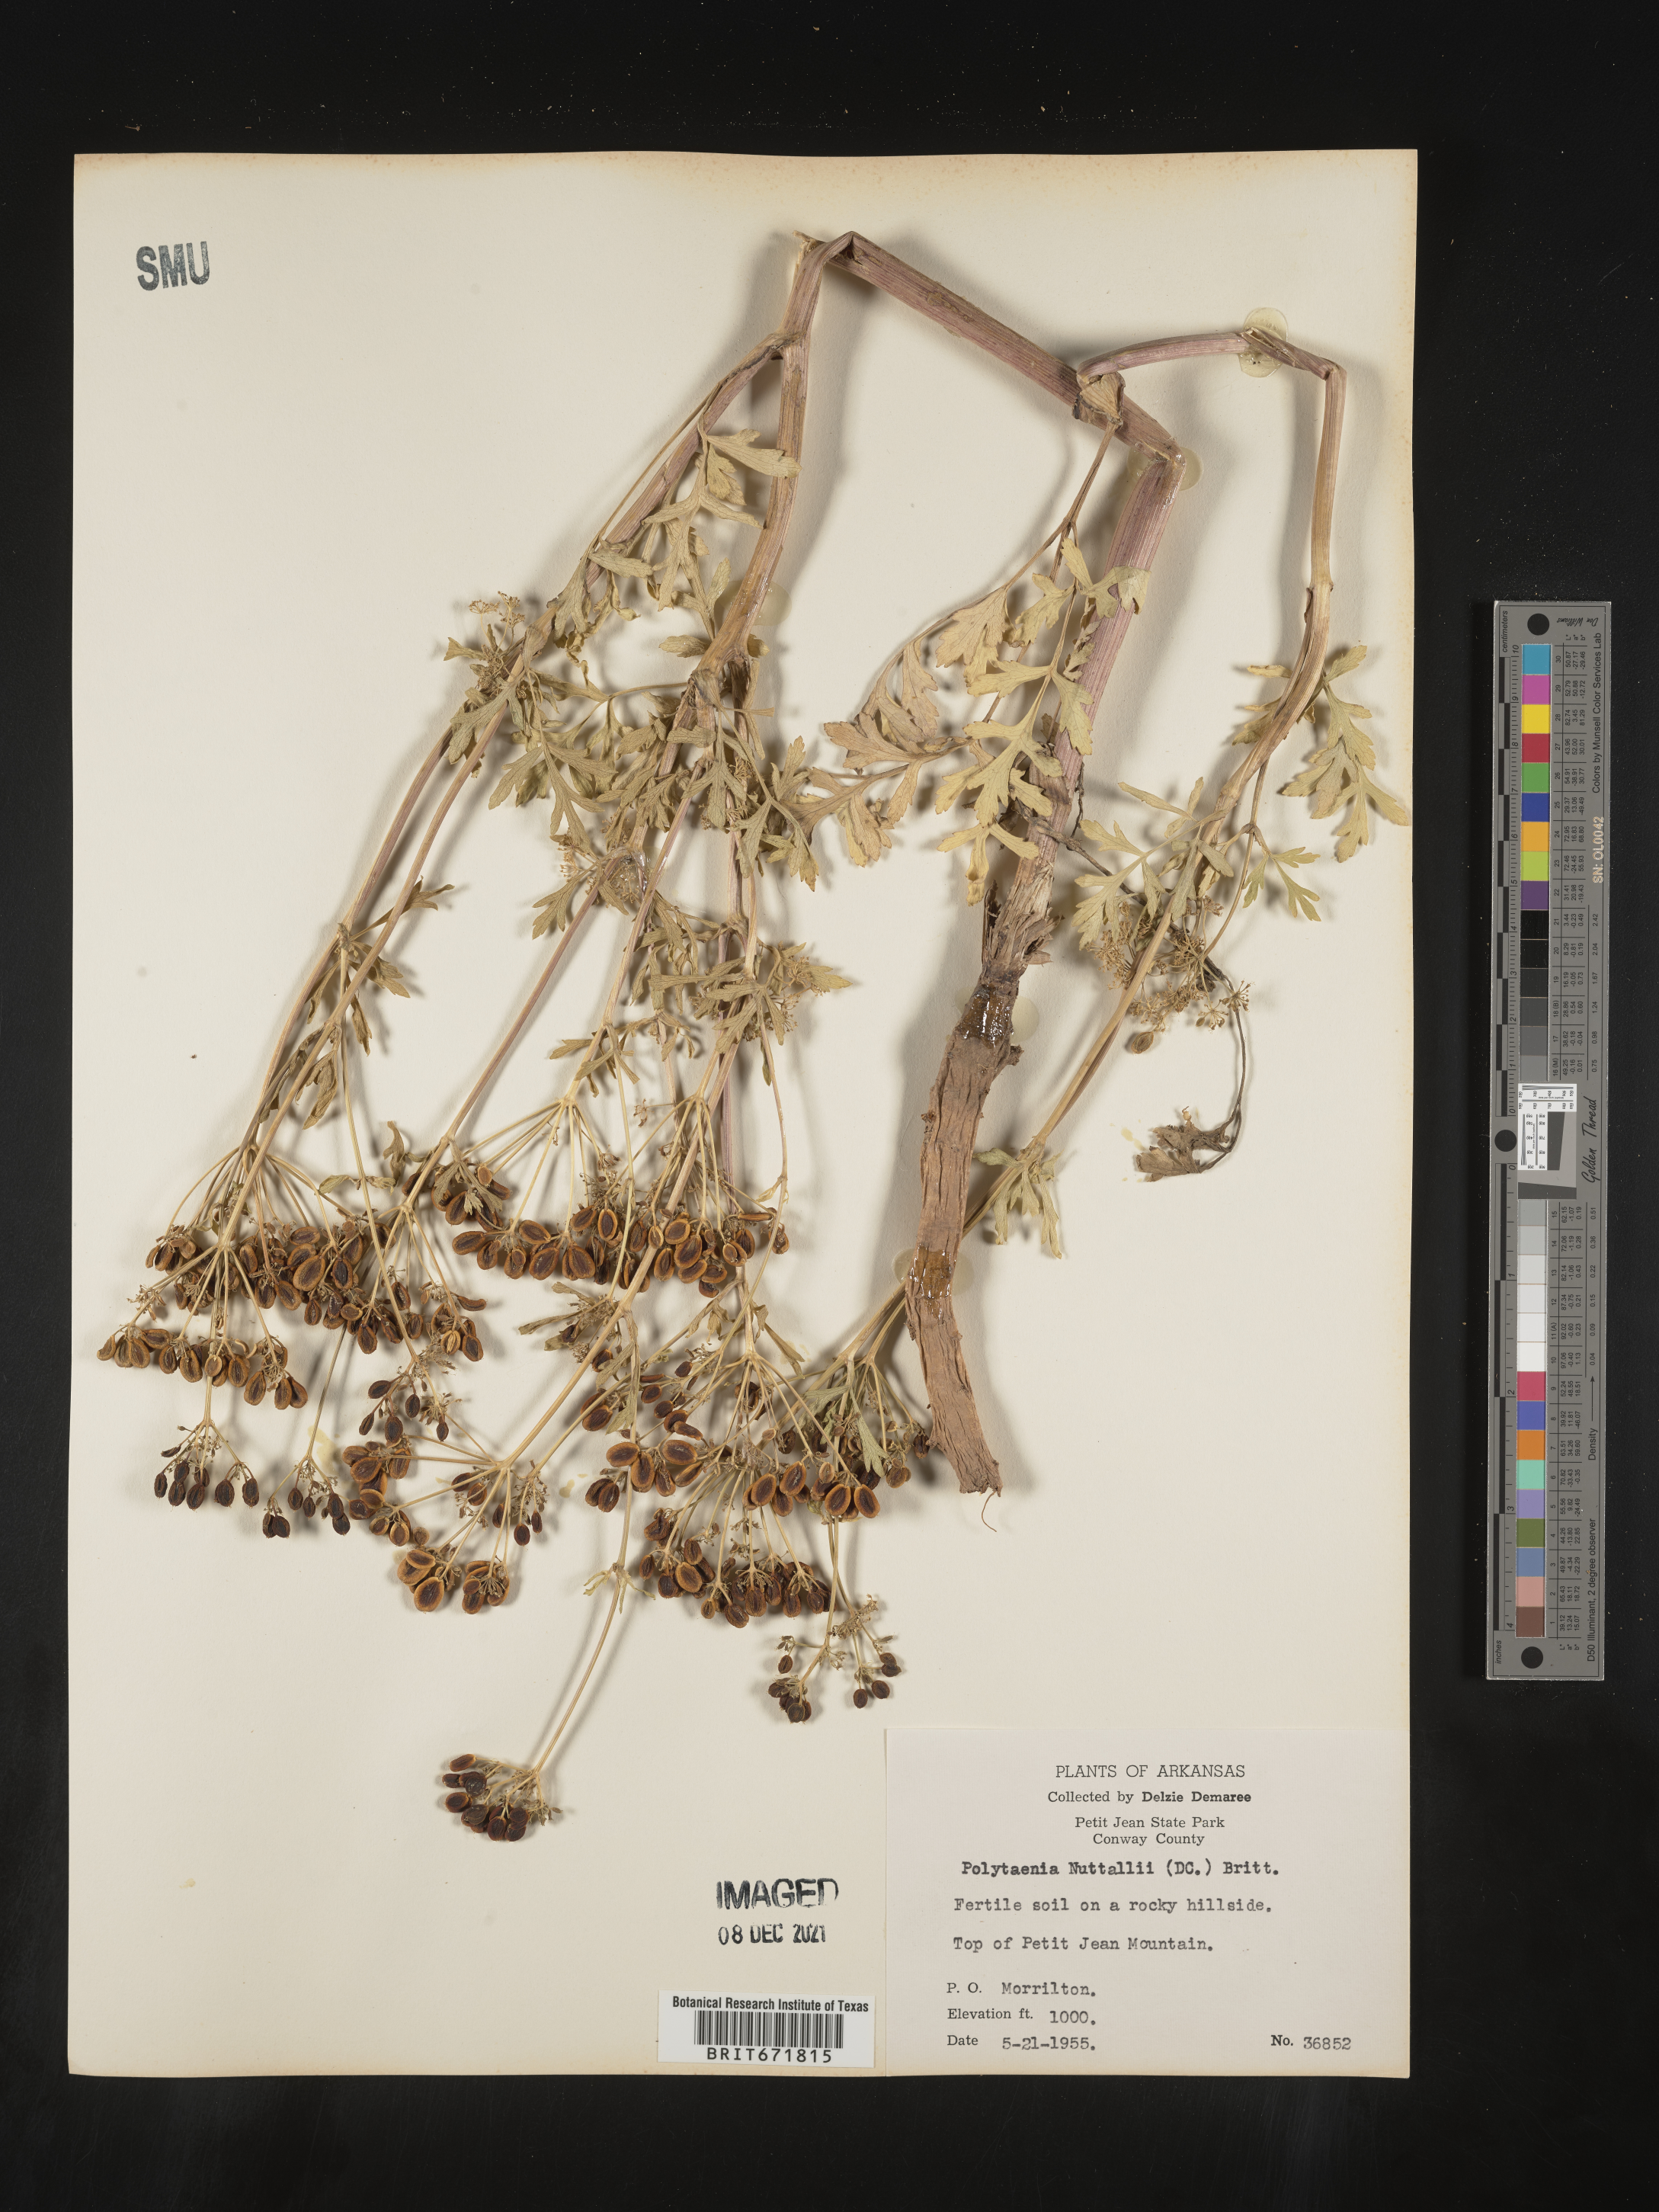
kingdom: Plantae
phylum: Tracheophyta
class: Magnoliopsida
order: Apiales
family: Apiaceae
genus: Polytaenia
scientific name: Polytaenia nuttallii
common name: Prairie-parsley
